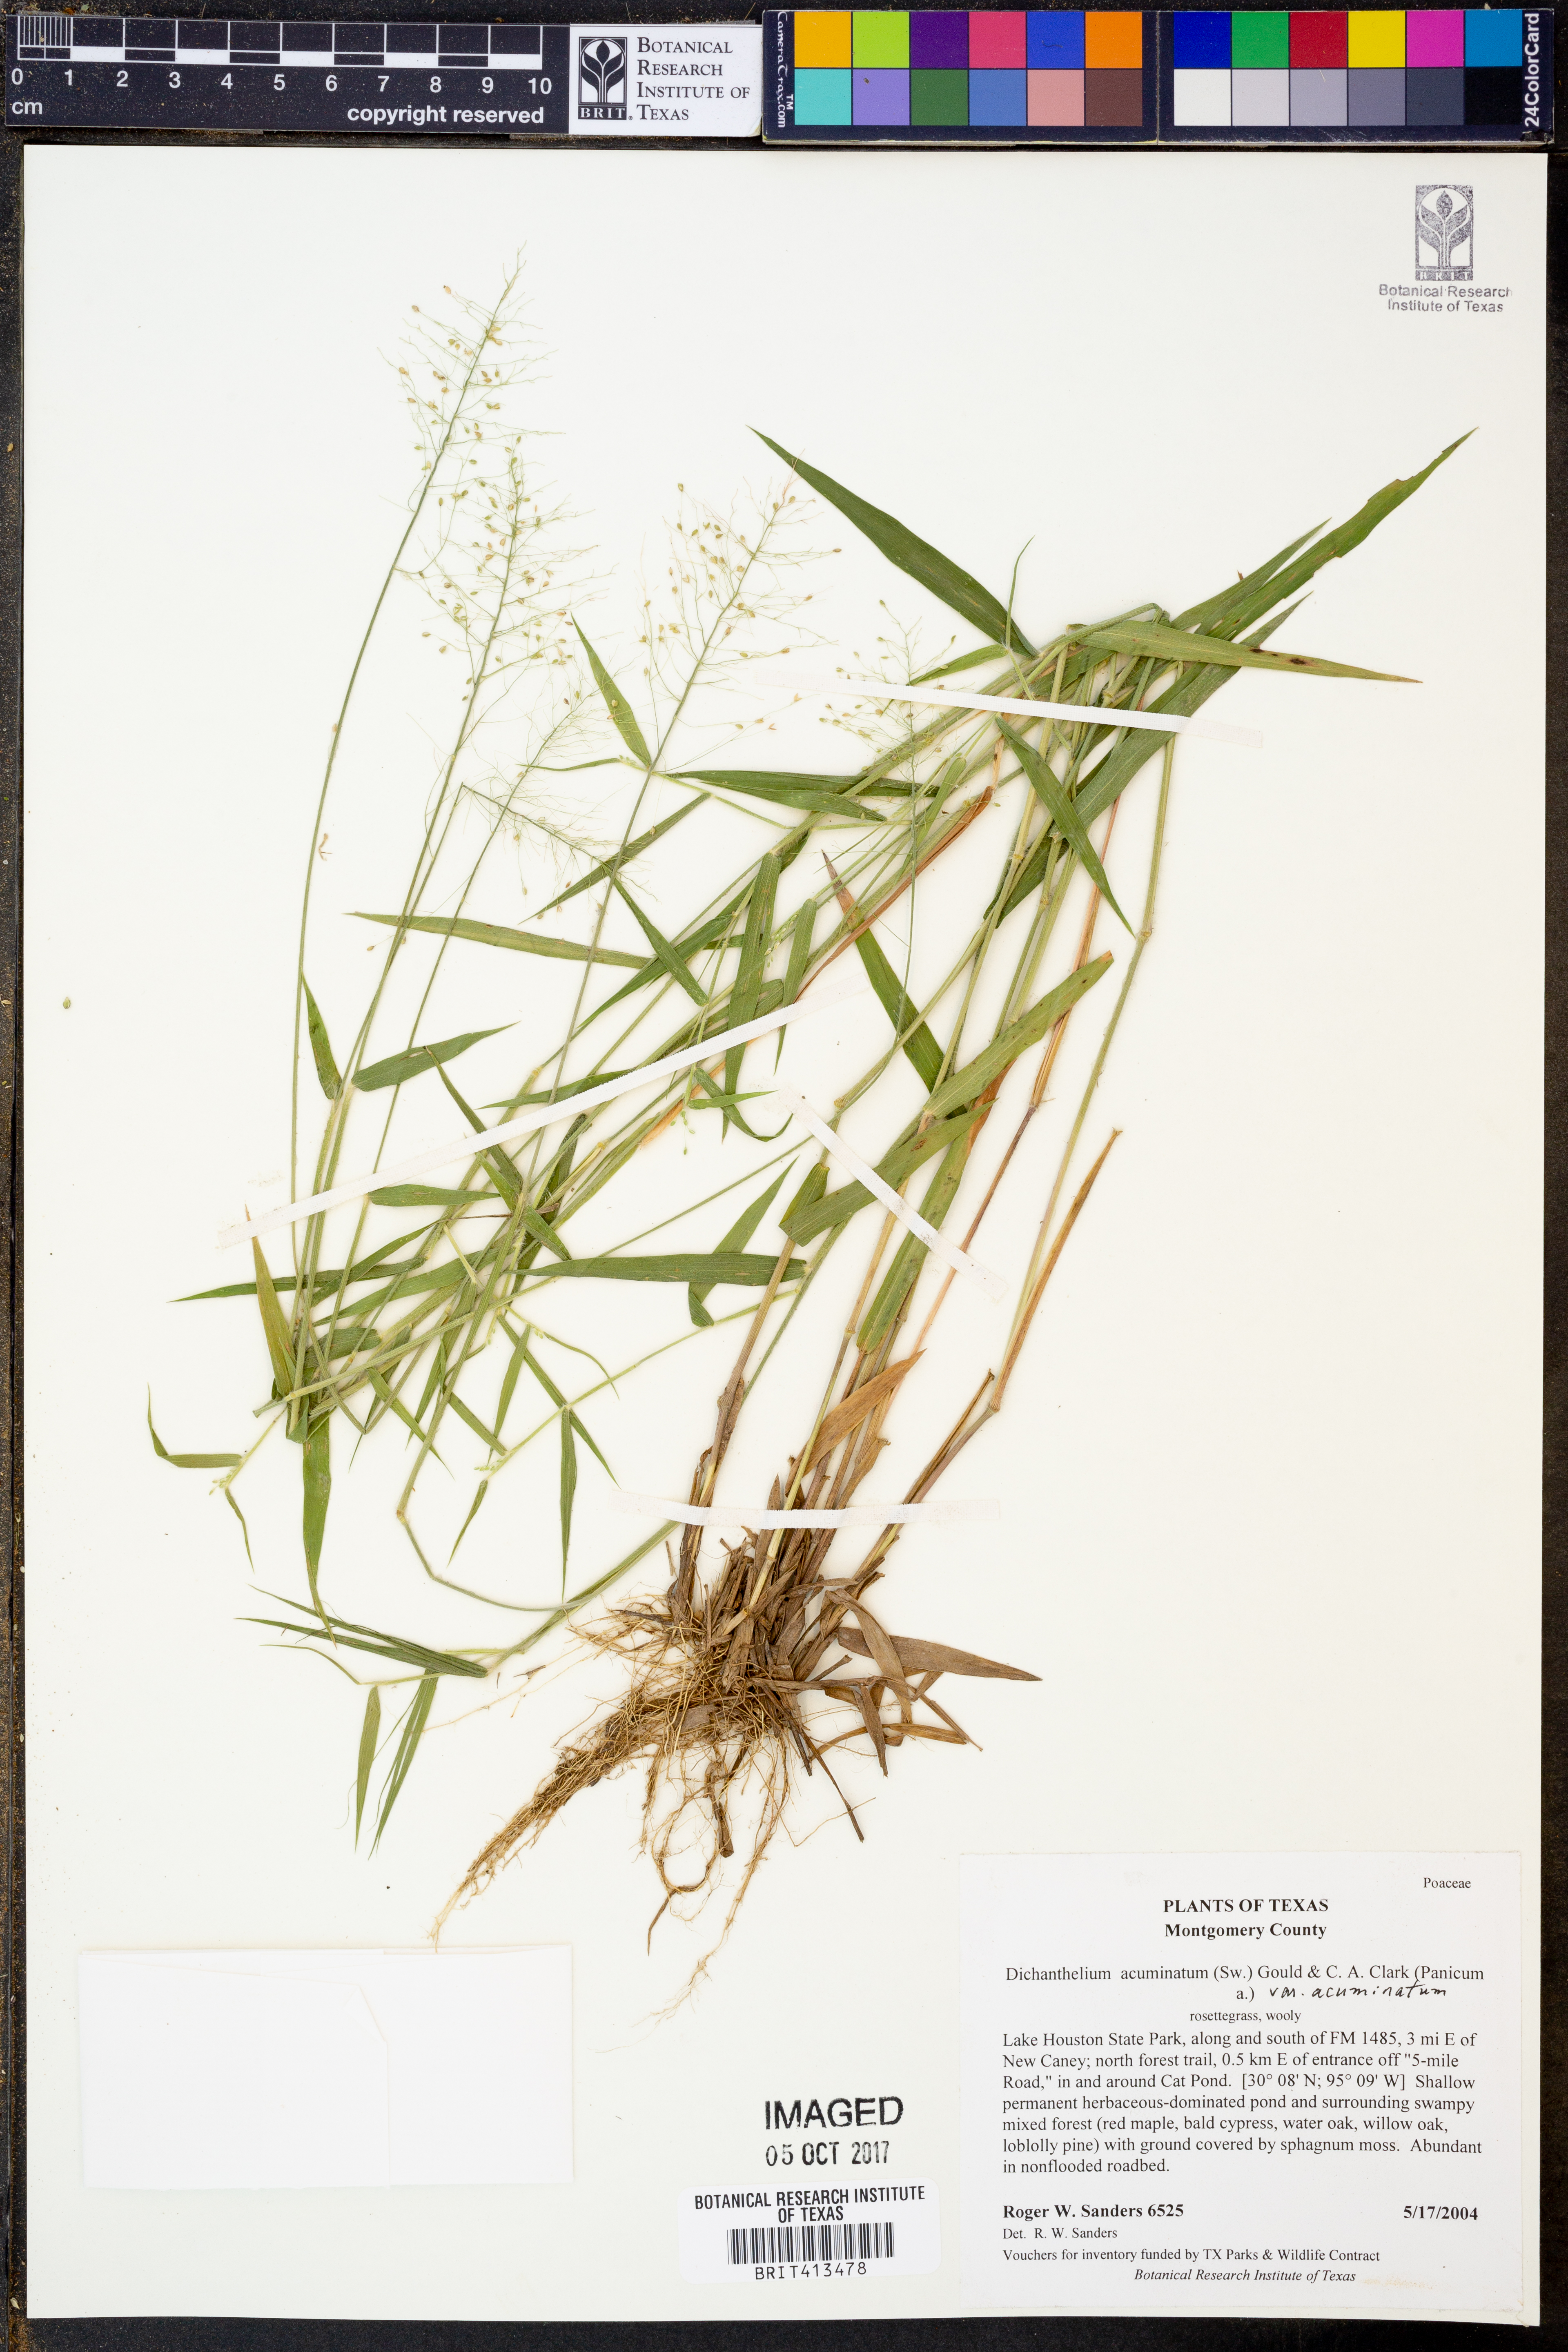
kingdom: Plantae
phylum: Tracheophyta
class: Liliopsida
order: Poales
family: Poaceae
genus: Dichanthelium
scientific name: Dichanthelium acuminatum
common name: Hairy panic grass
